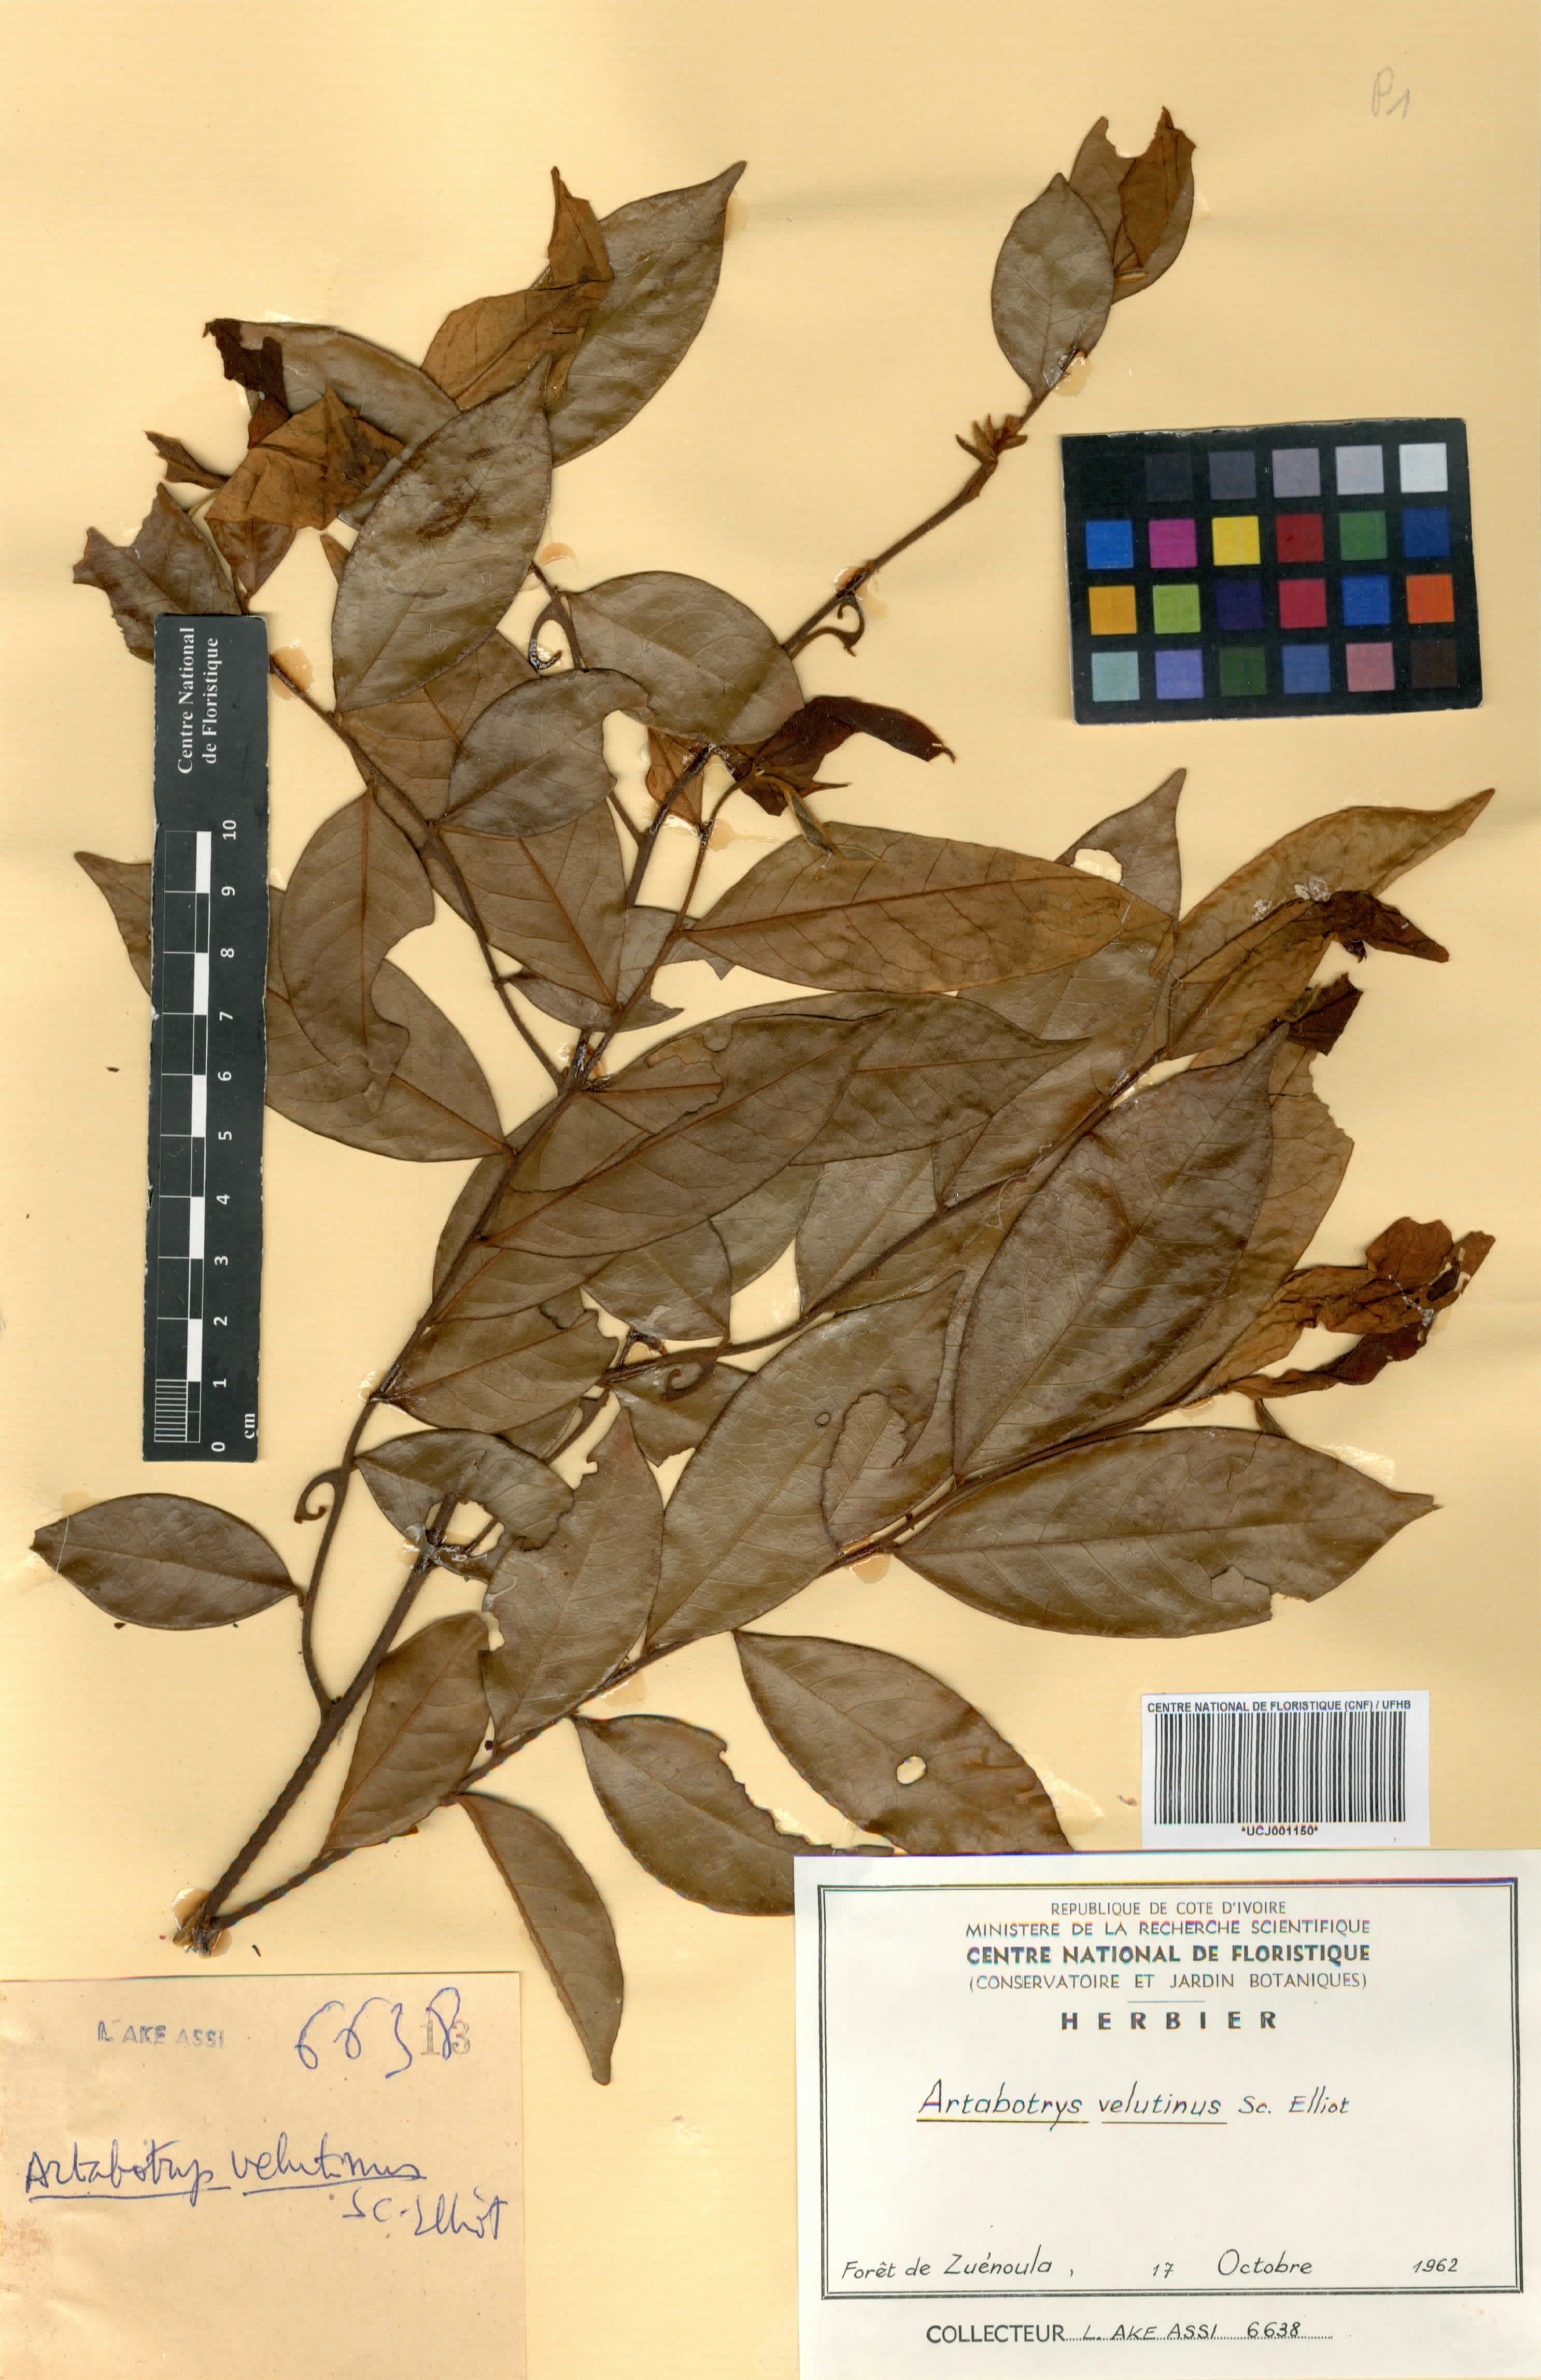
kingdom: Plantae
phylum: Tracheophyta
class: Magnoliopsida
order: Magnoliales
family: Annonaceae
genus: Artabotrys
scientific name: Artabotrys velutinus
